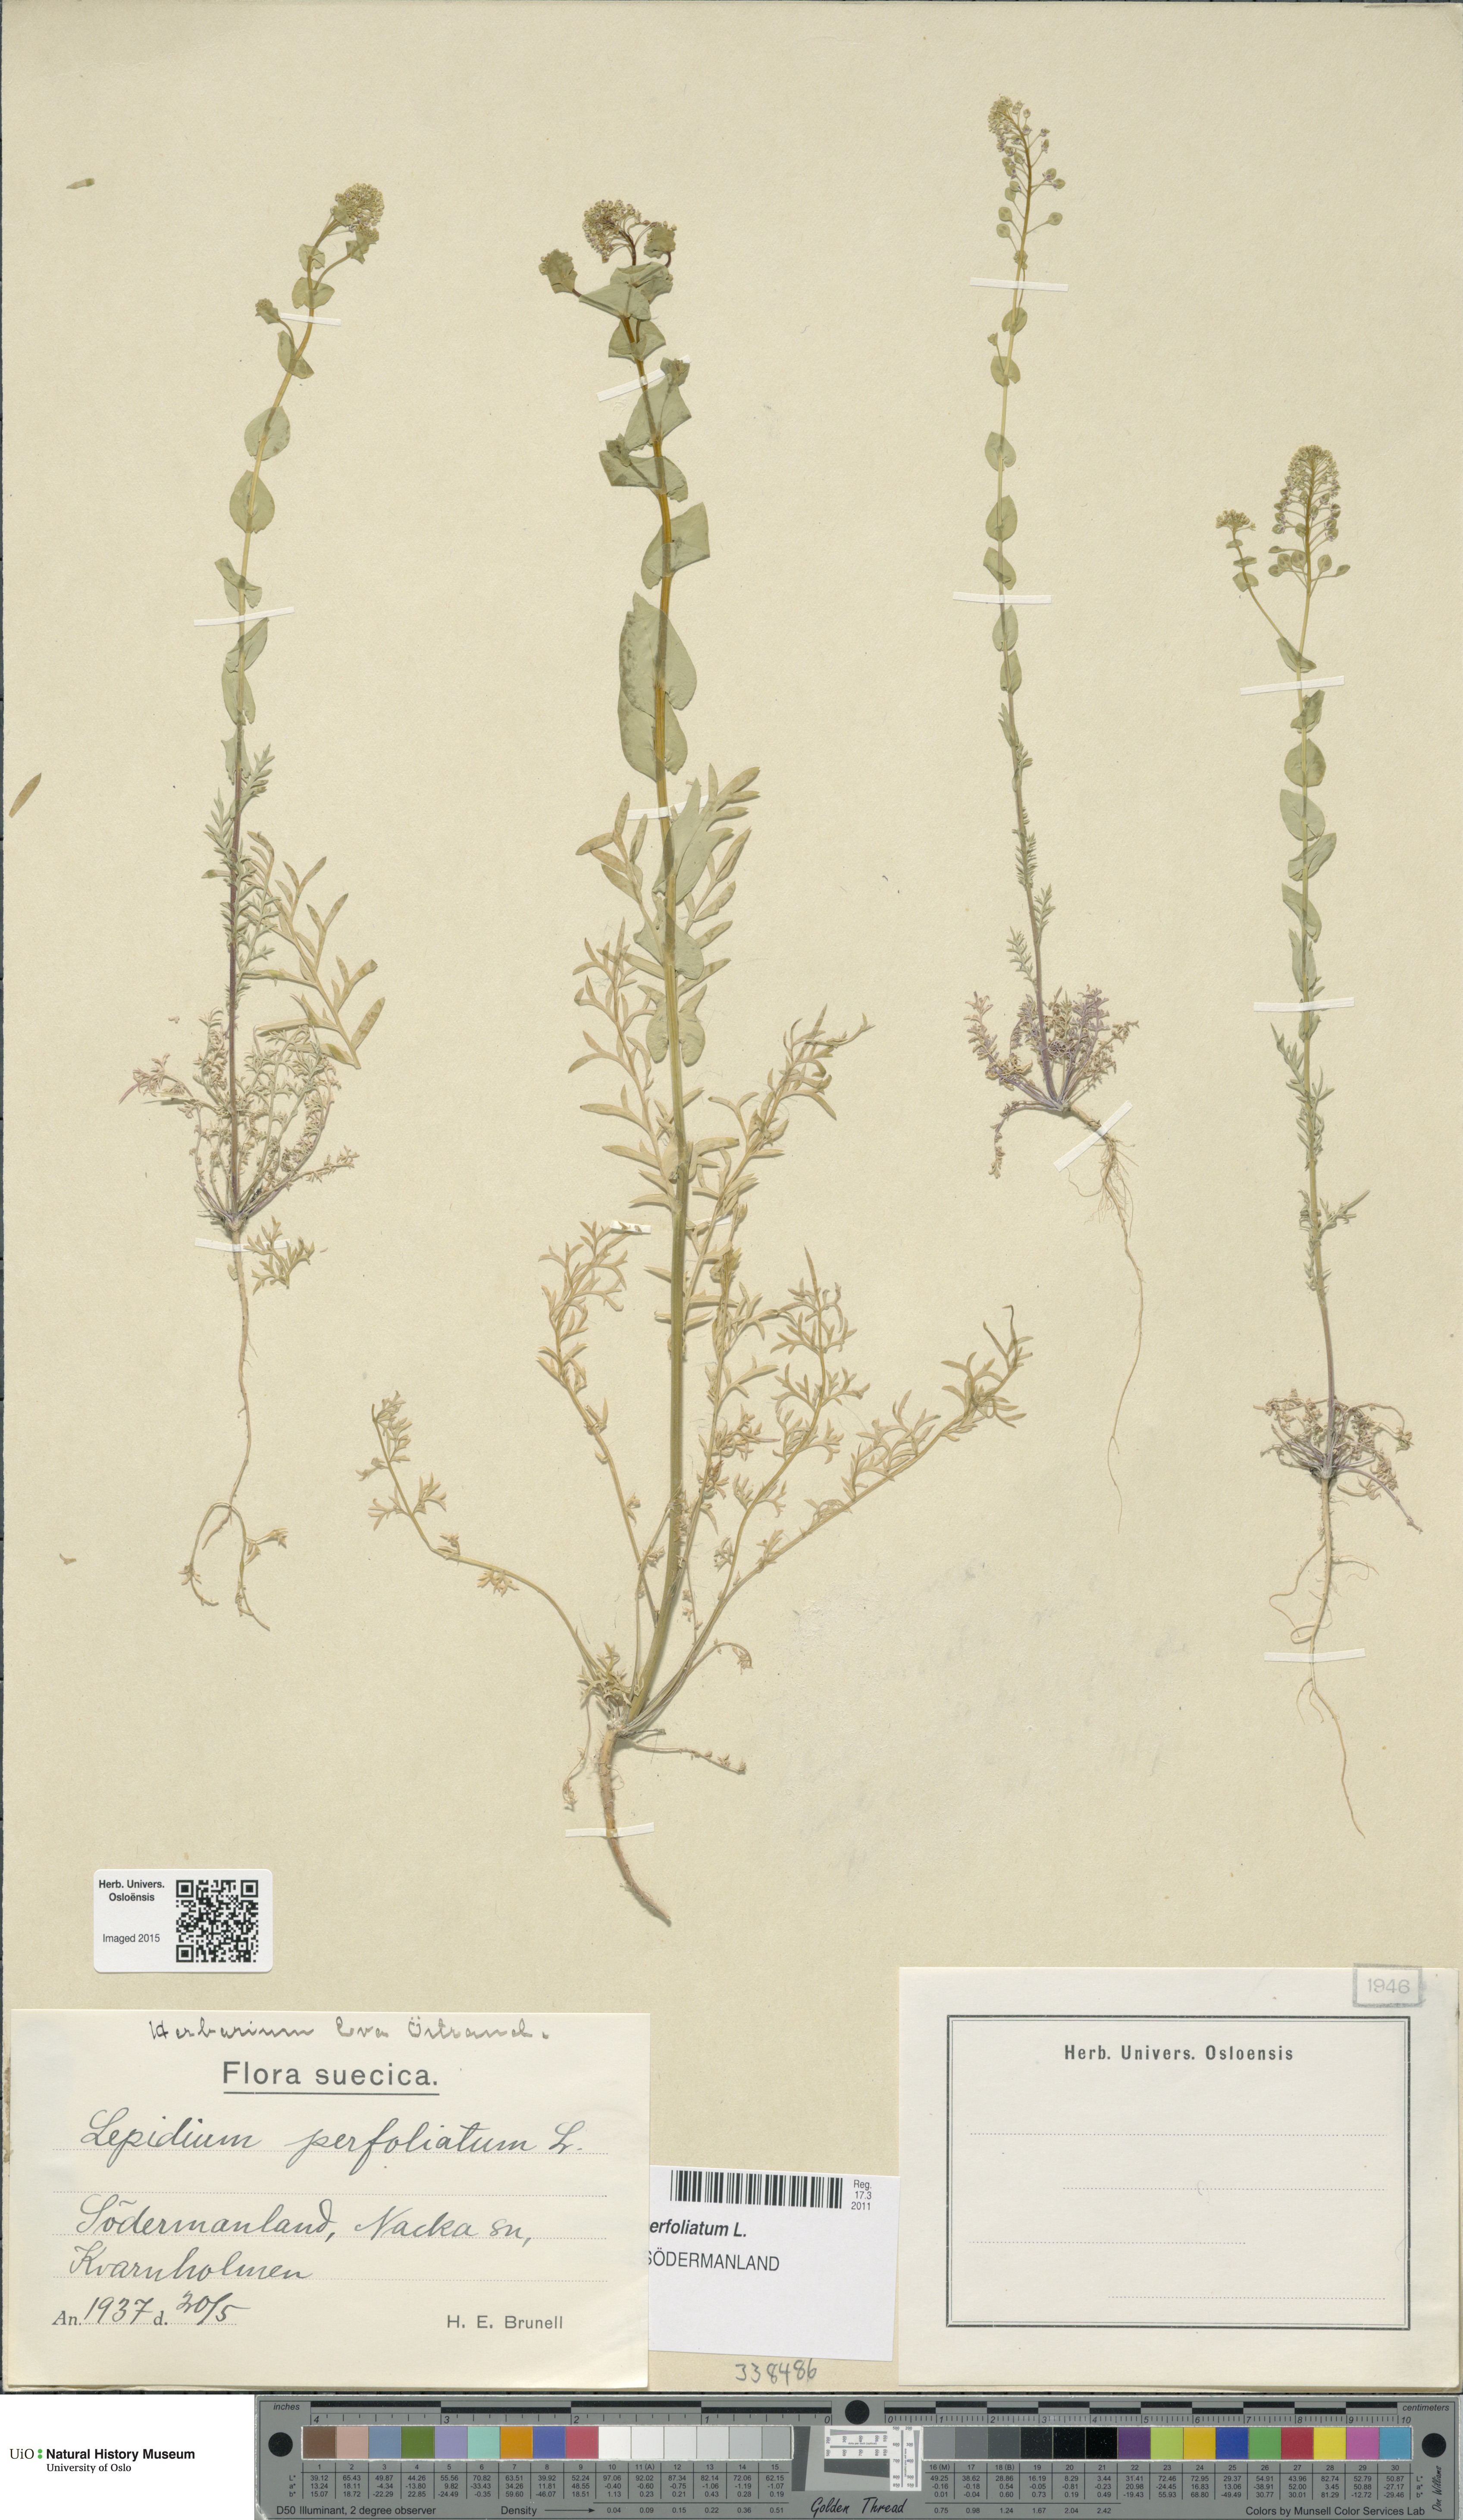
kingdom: Plantae
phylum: Tracheophyta
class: Magnoliopsida
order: Brassicales
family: Brassicaceae
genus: Lepidium
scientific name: Lepidium perfoliatum
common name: Perfoliate pepperwort
